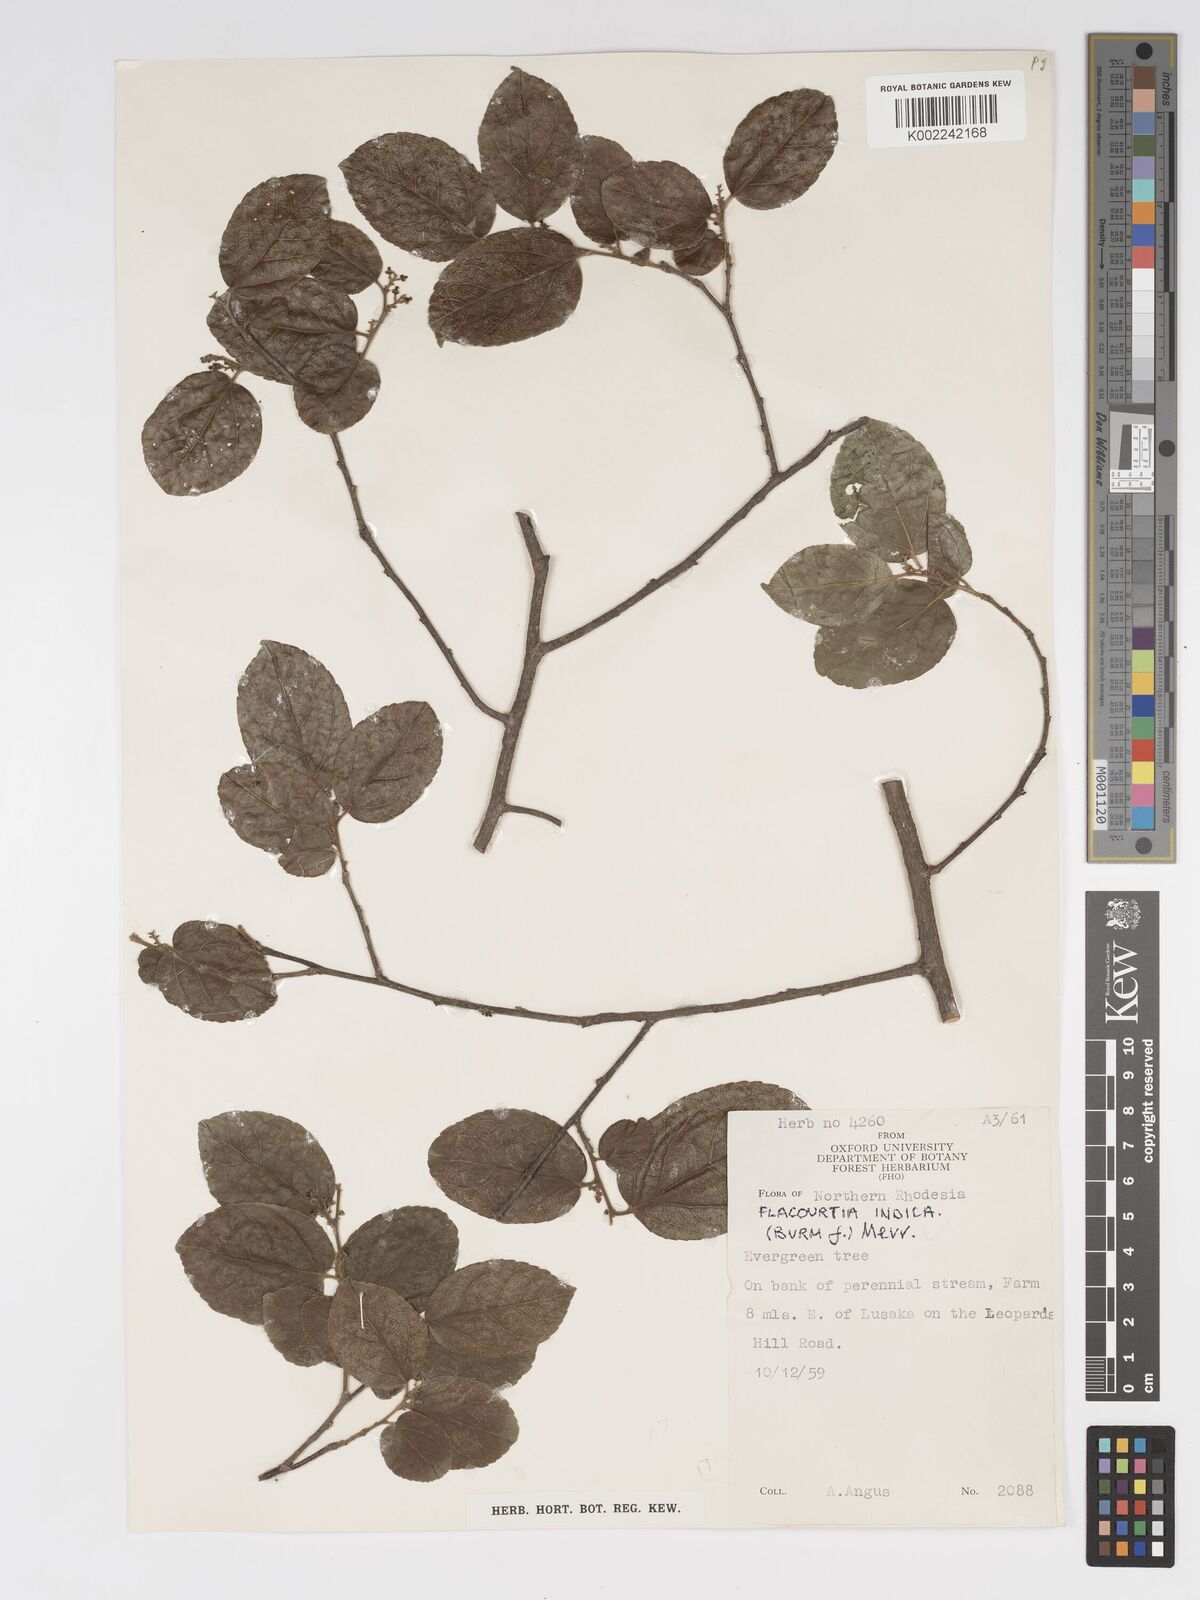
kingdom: Plantae
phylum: Tracheophyta
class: Magnoliopsida
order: Malpighiales
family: Salicaceae
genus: Flacourtia
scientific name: Flacourtia indica
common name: Governor's plum
